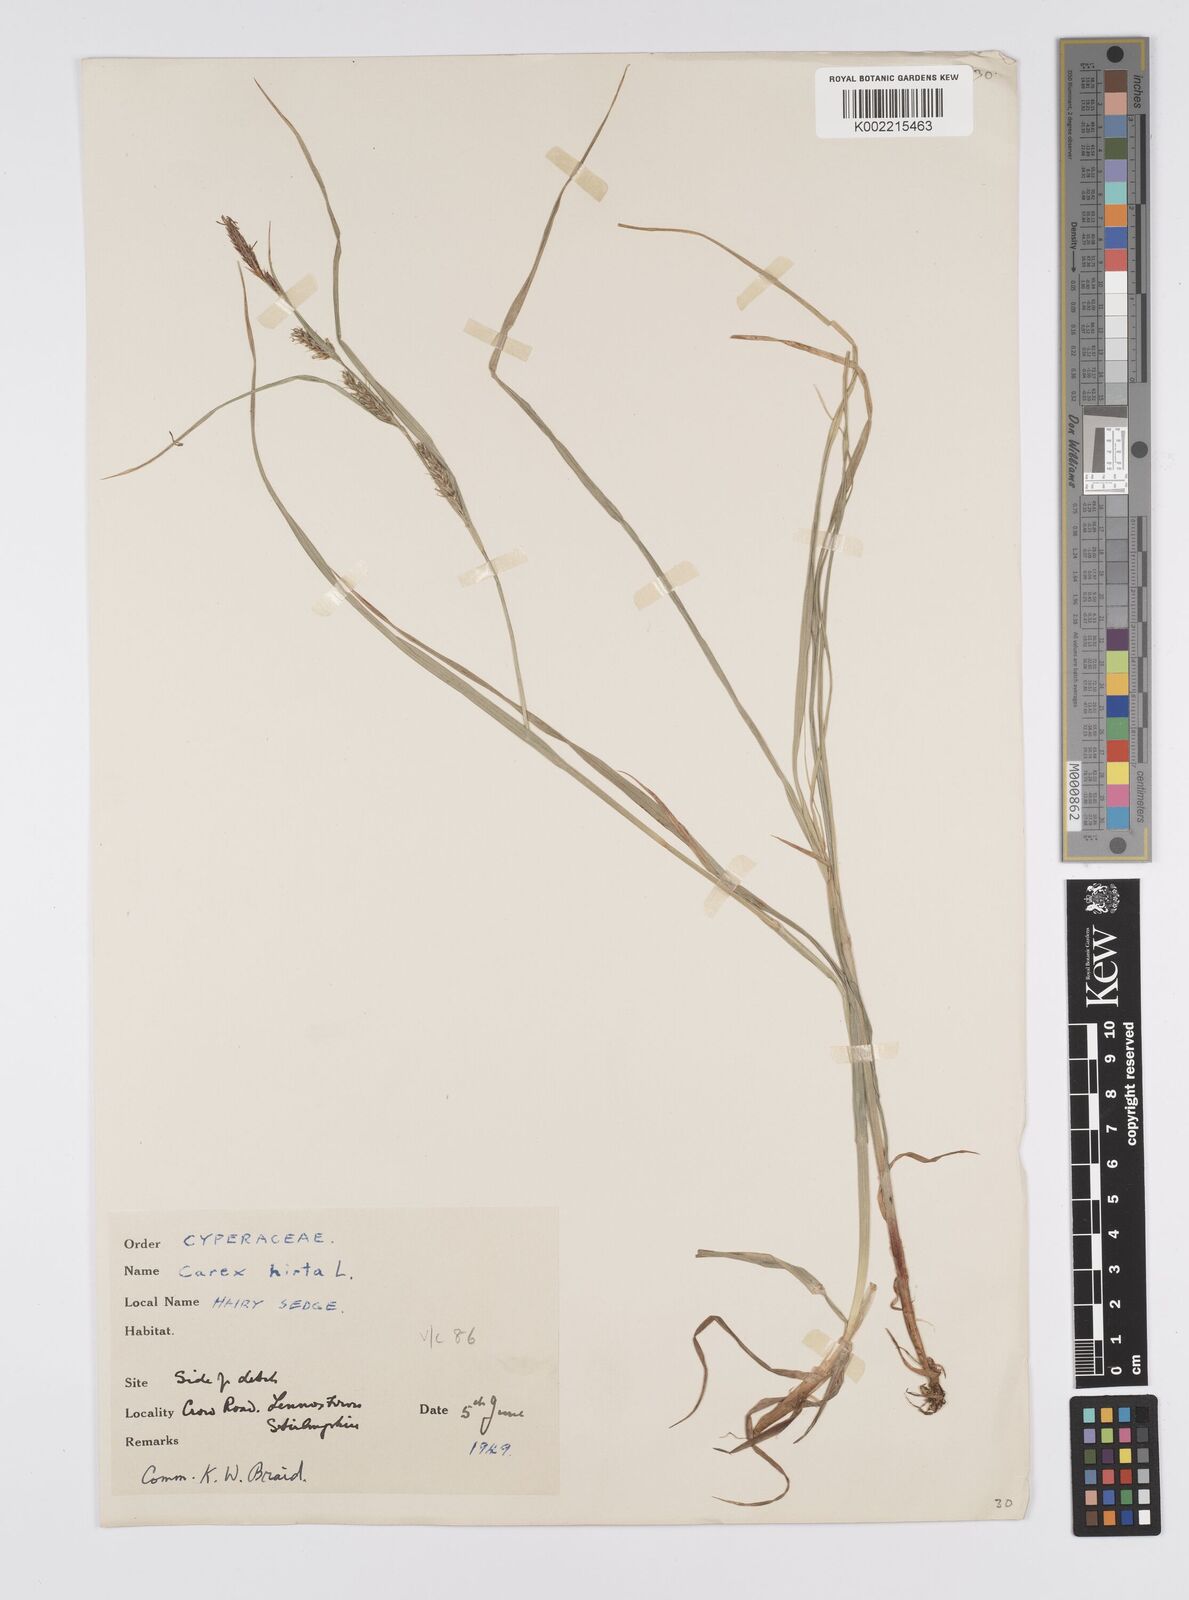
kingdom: Plantae
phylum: Tracheophyta
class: Liliopsida
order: Poales
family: Cyperaceae
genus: Carex
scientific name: Carex hirta
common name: Hairy sedge
